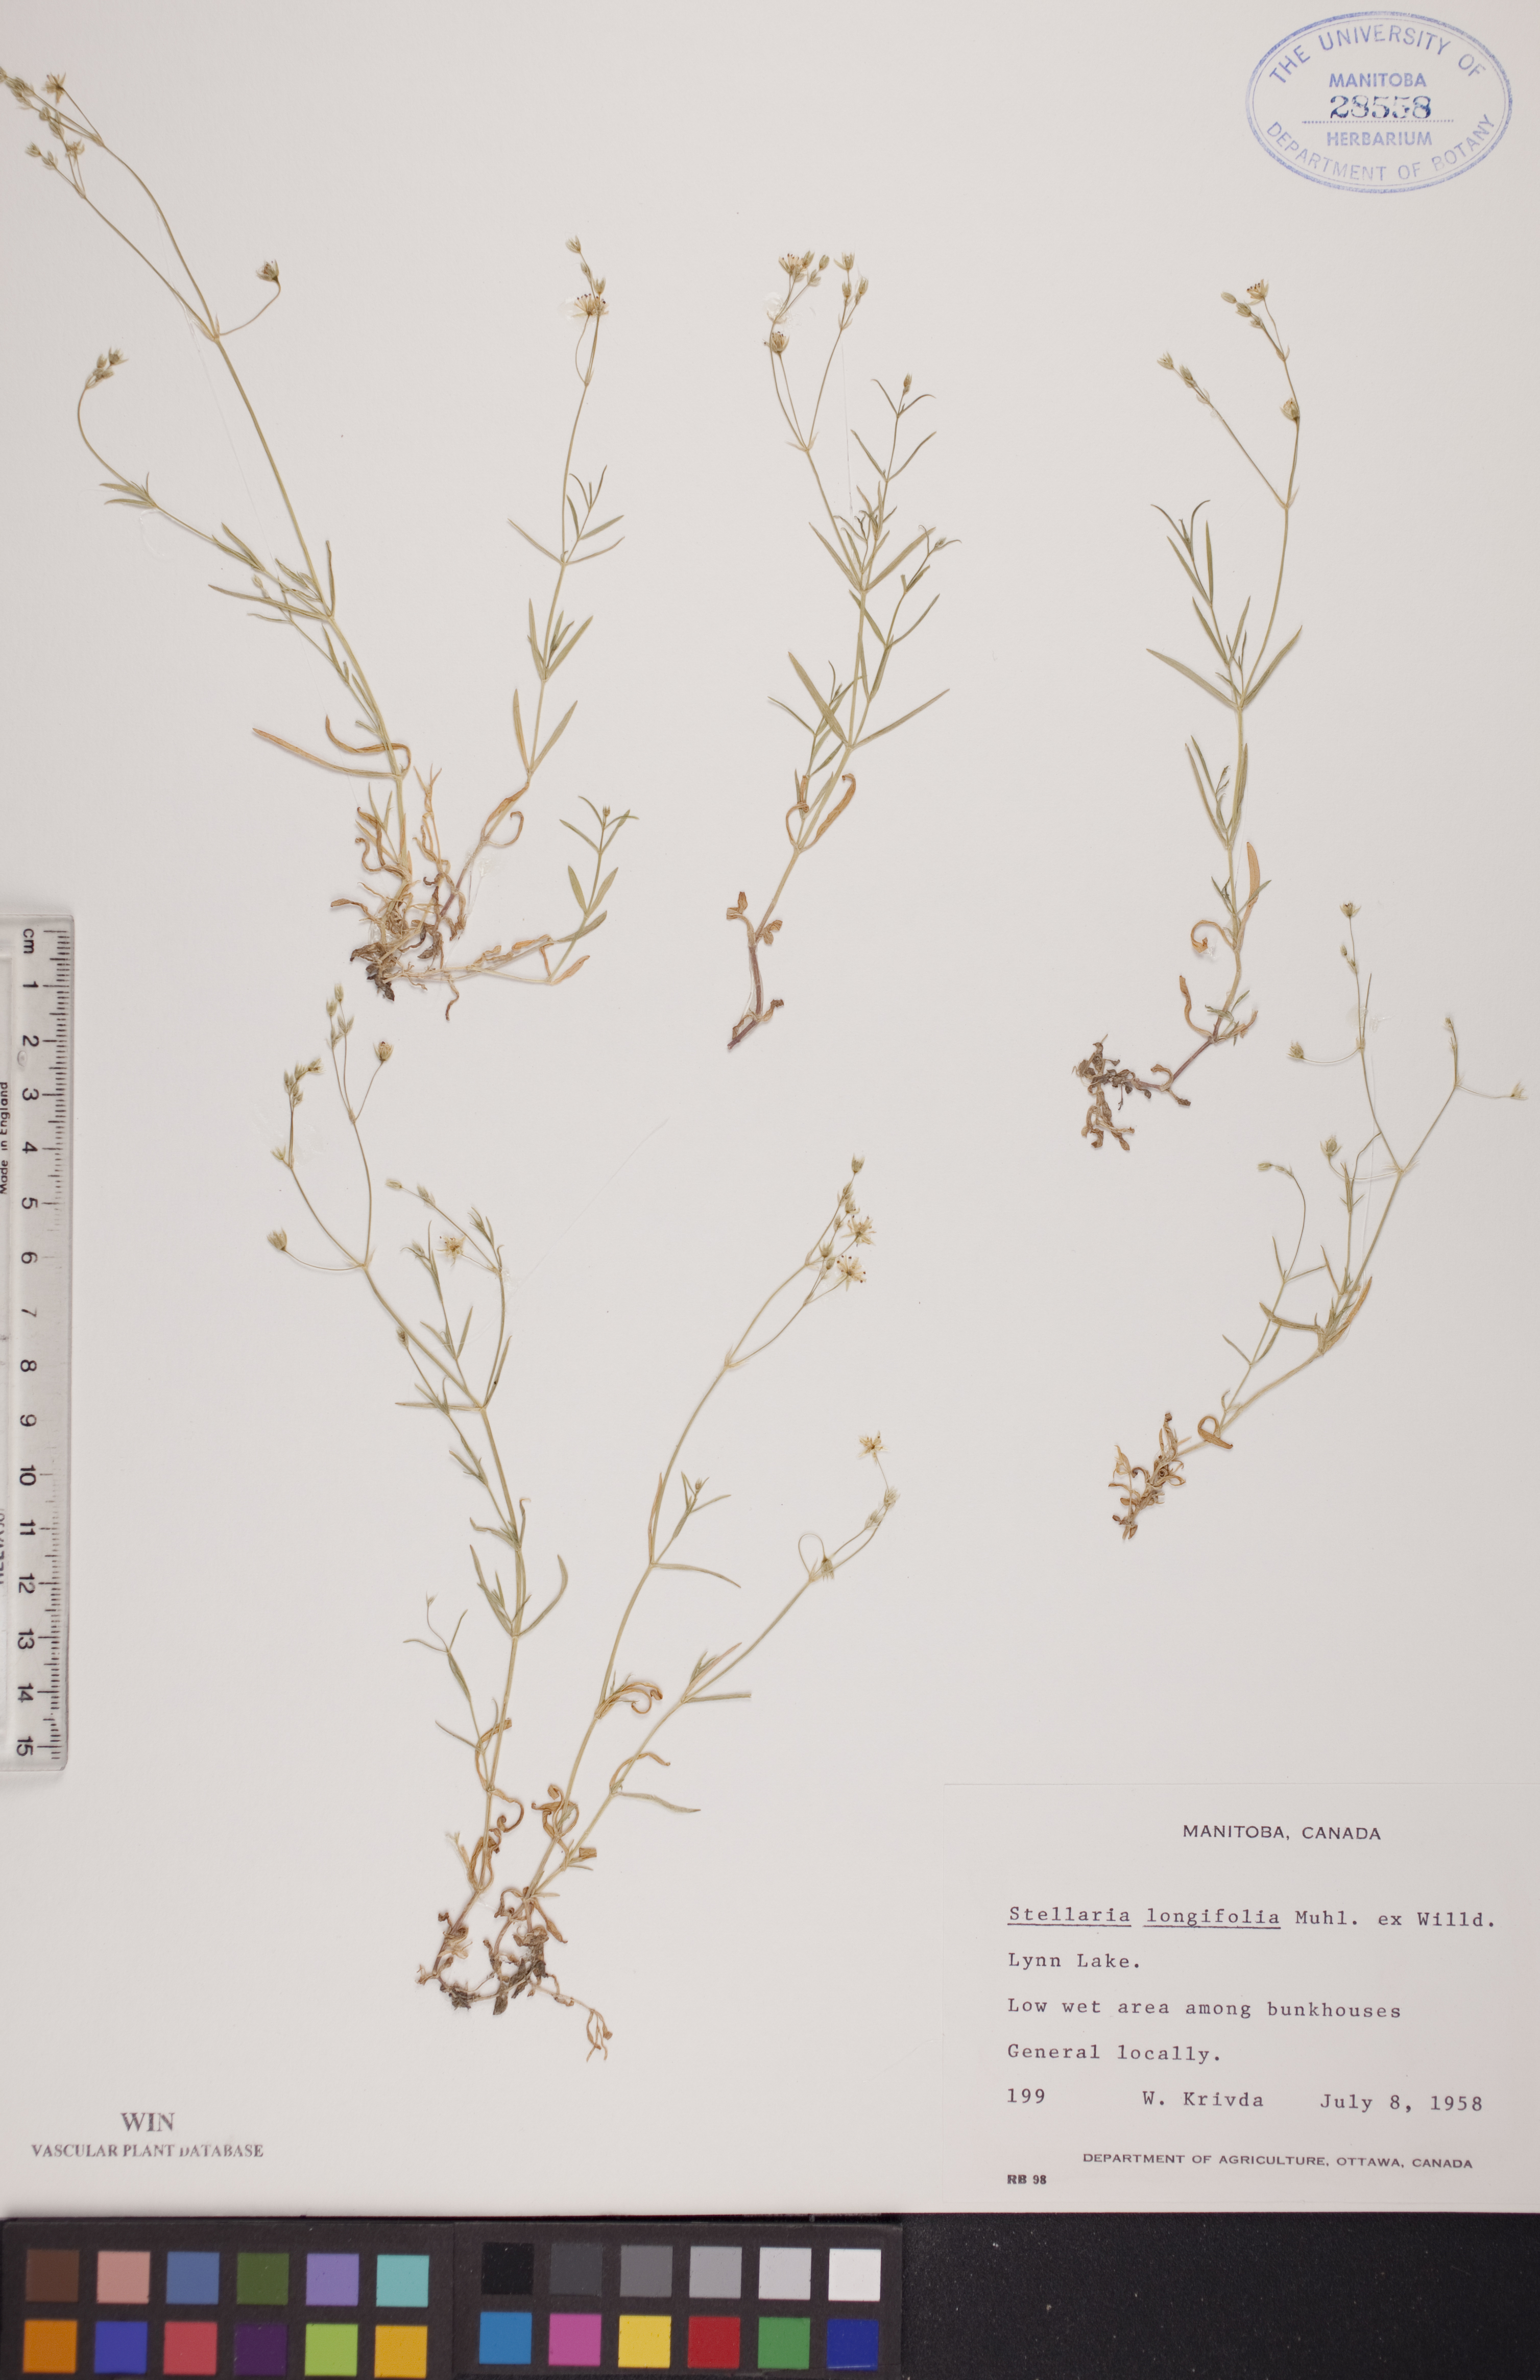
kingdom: Plantae
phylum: Tracheophyta
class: Magnoliopsida
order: Caryophyllales
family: Caryophyllaceae
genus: Stellaria
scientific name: Stellaria longifolia
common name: Long-leaved chickweed
